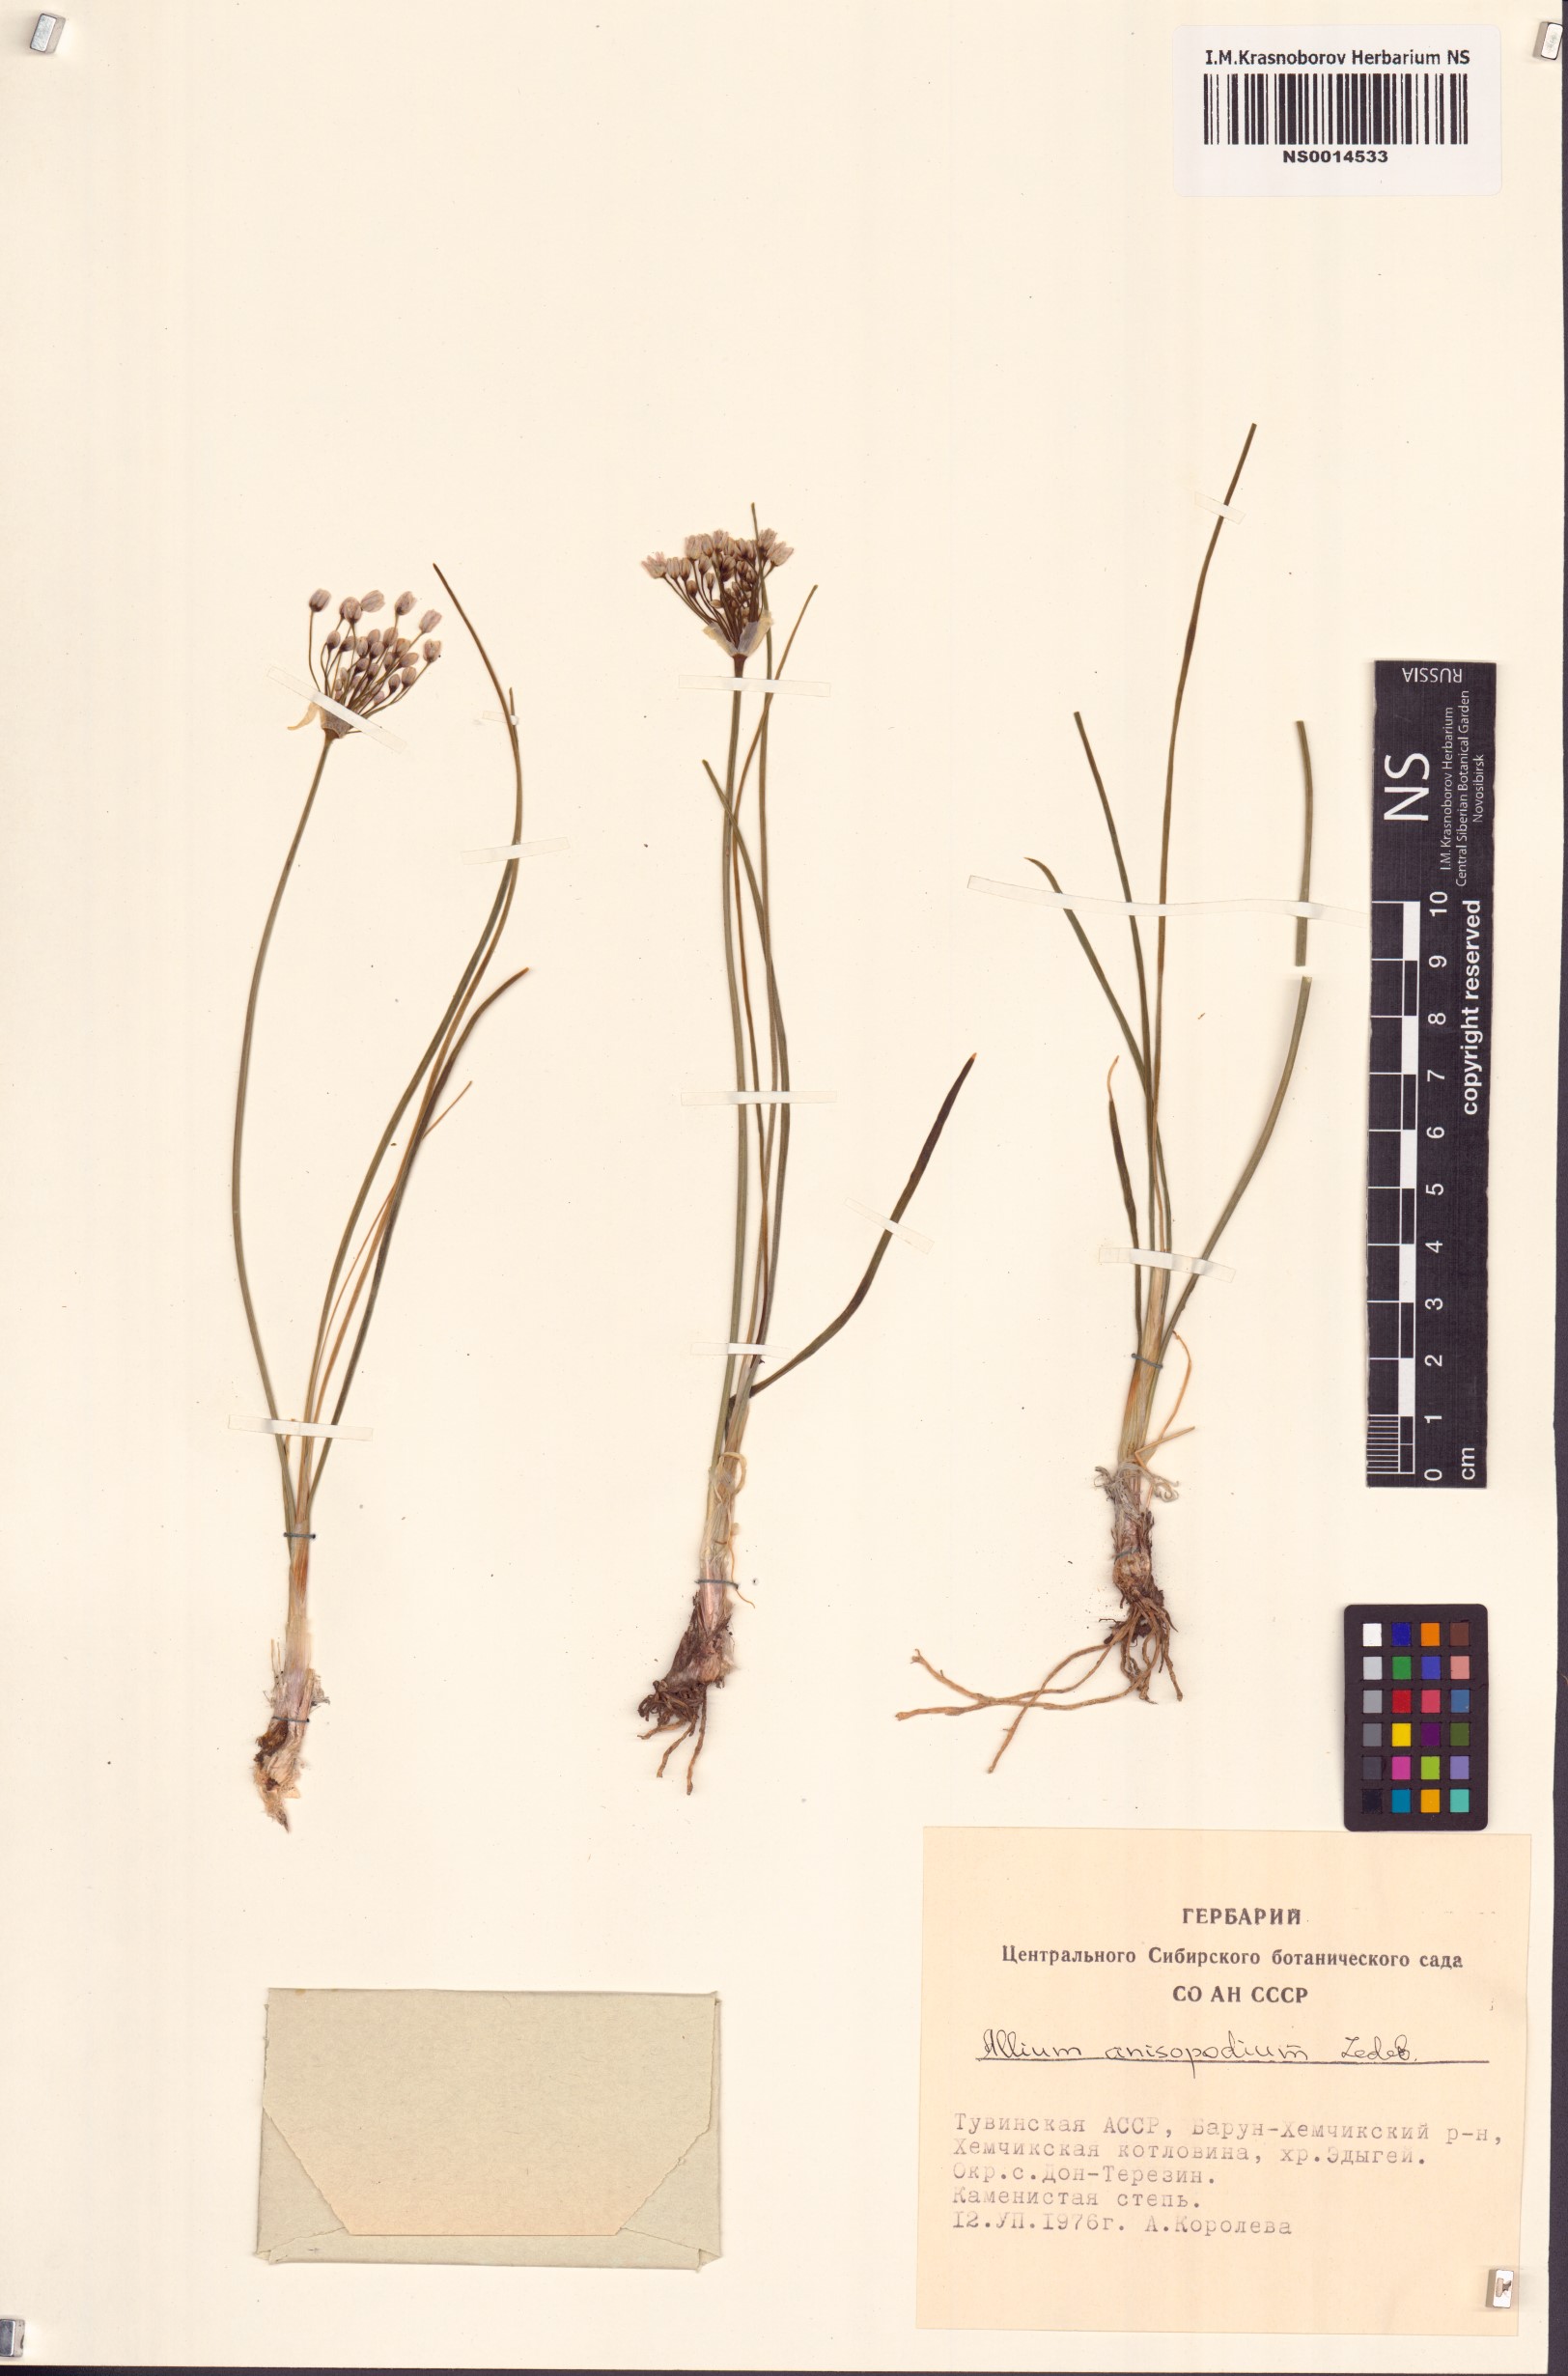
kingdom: Plantae
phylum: Tracheophyta
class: Liliopsida
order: Asparagales
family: Amaryllidaceae
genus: Allium
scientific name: Allium anisopodium
